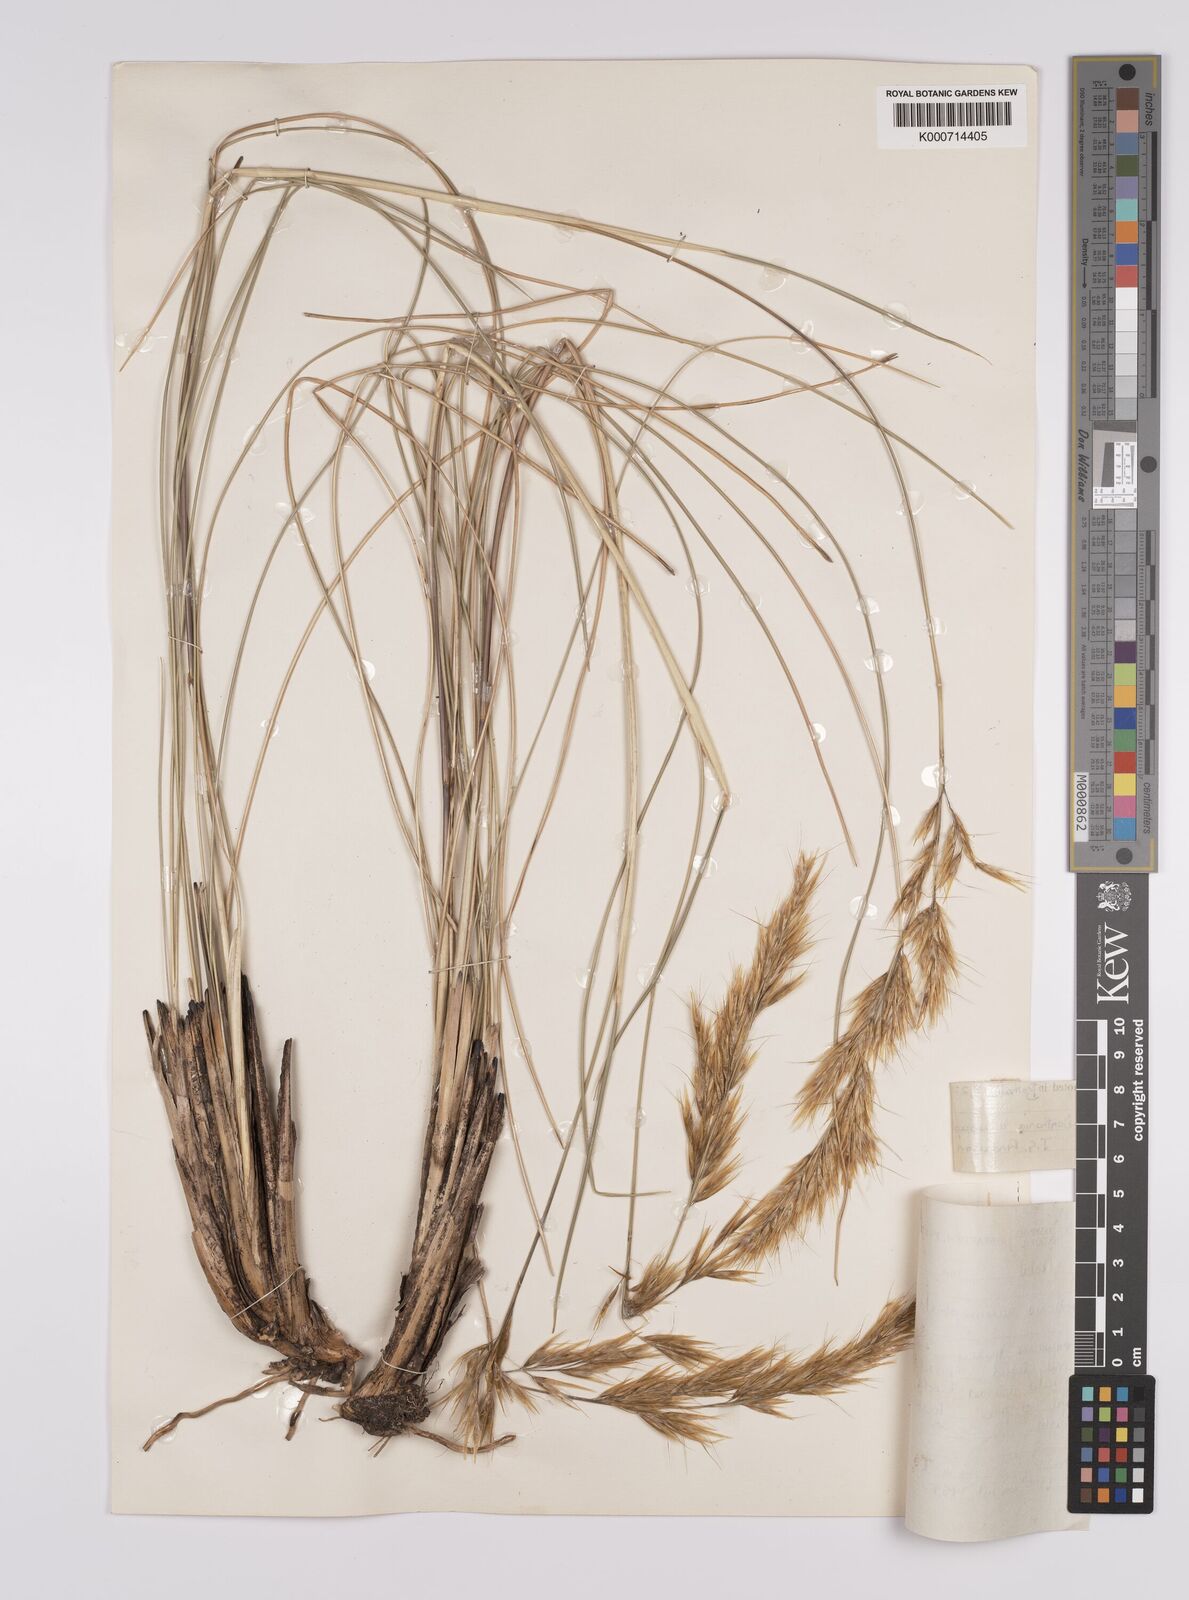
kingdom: Plantae
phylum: Tracheophyta
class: Liliopsida
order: Poales
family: Poaceae
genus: Rytidosperma
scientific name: Rytidosperma
